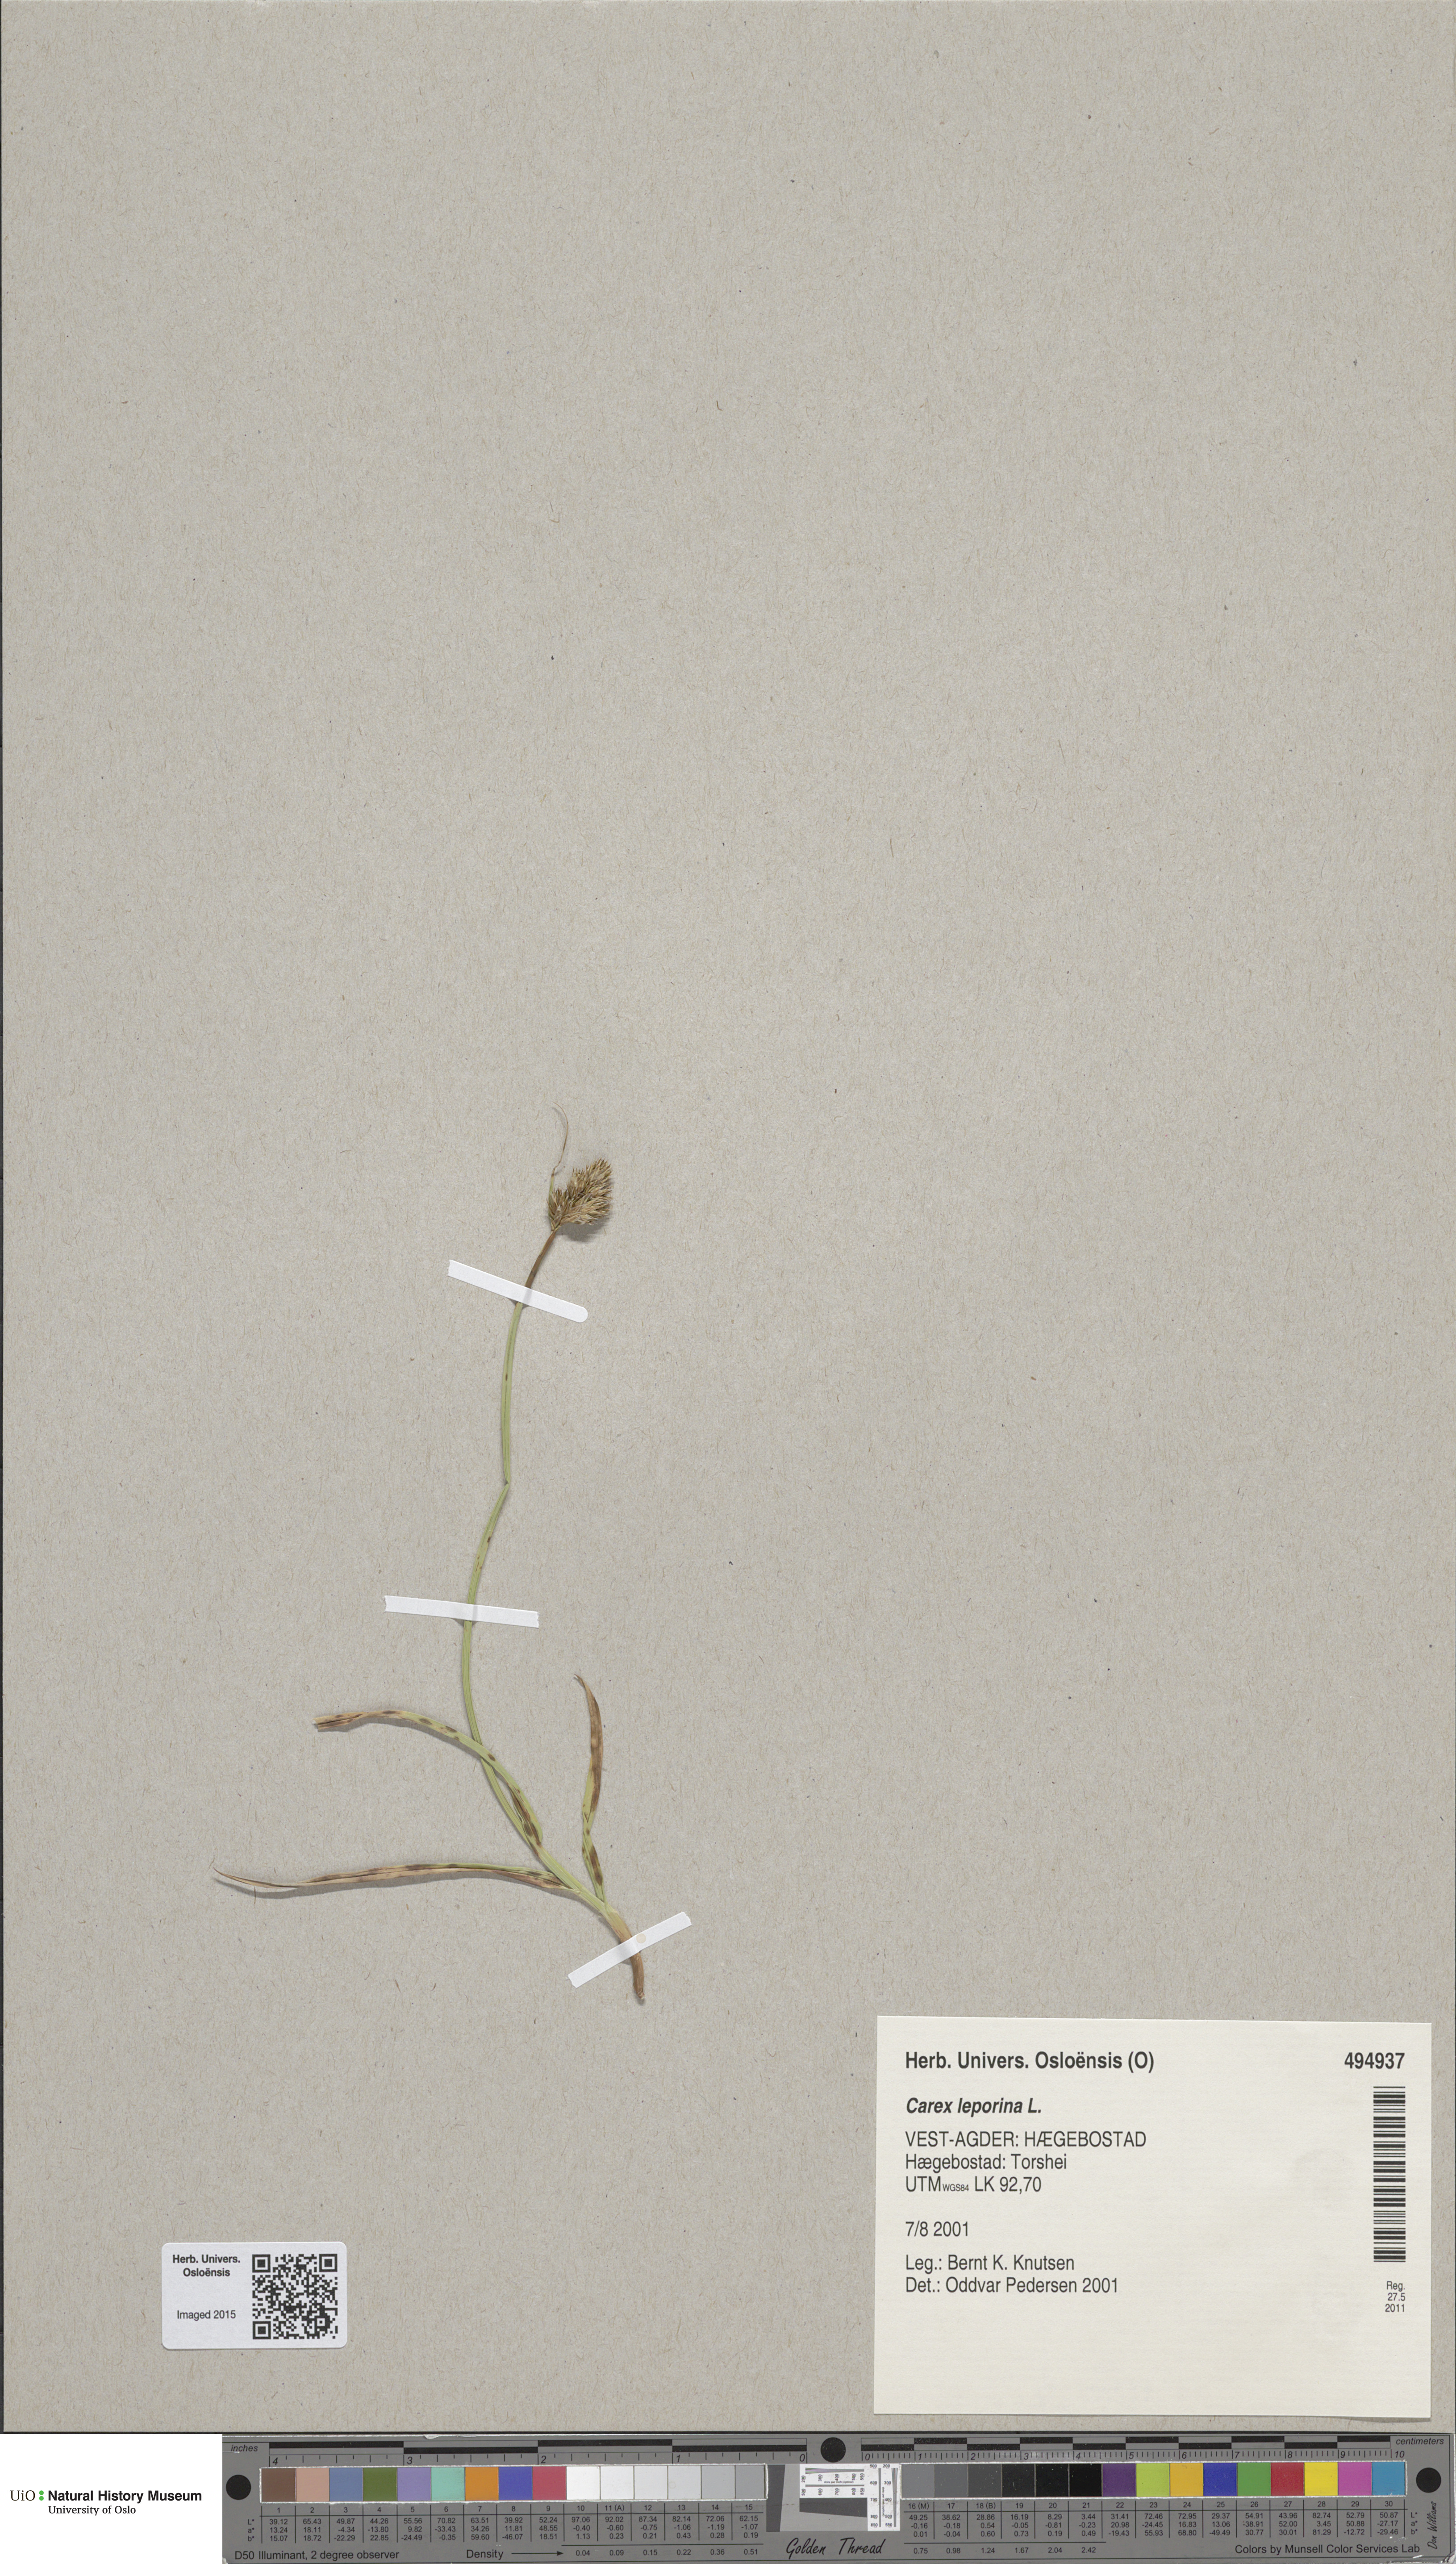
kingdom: Plantae
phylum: Tracheophyta
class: Liliopsida
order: Poales
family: Cyperaceae
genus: Carex
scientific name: Carex leporina
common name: Oval sedge
